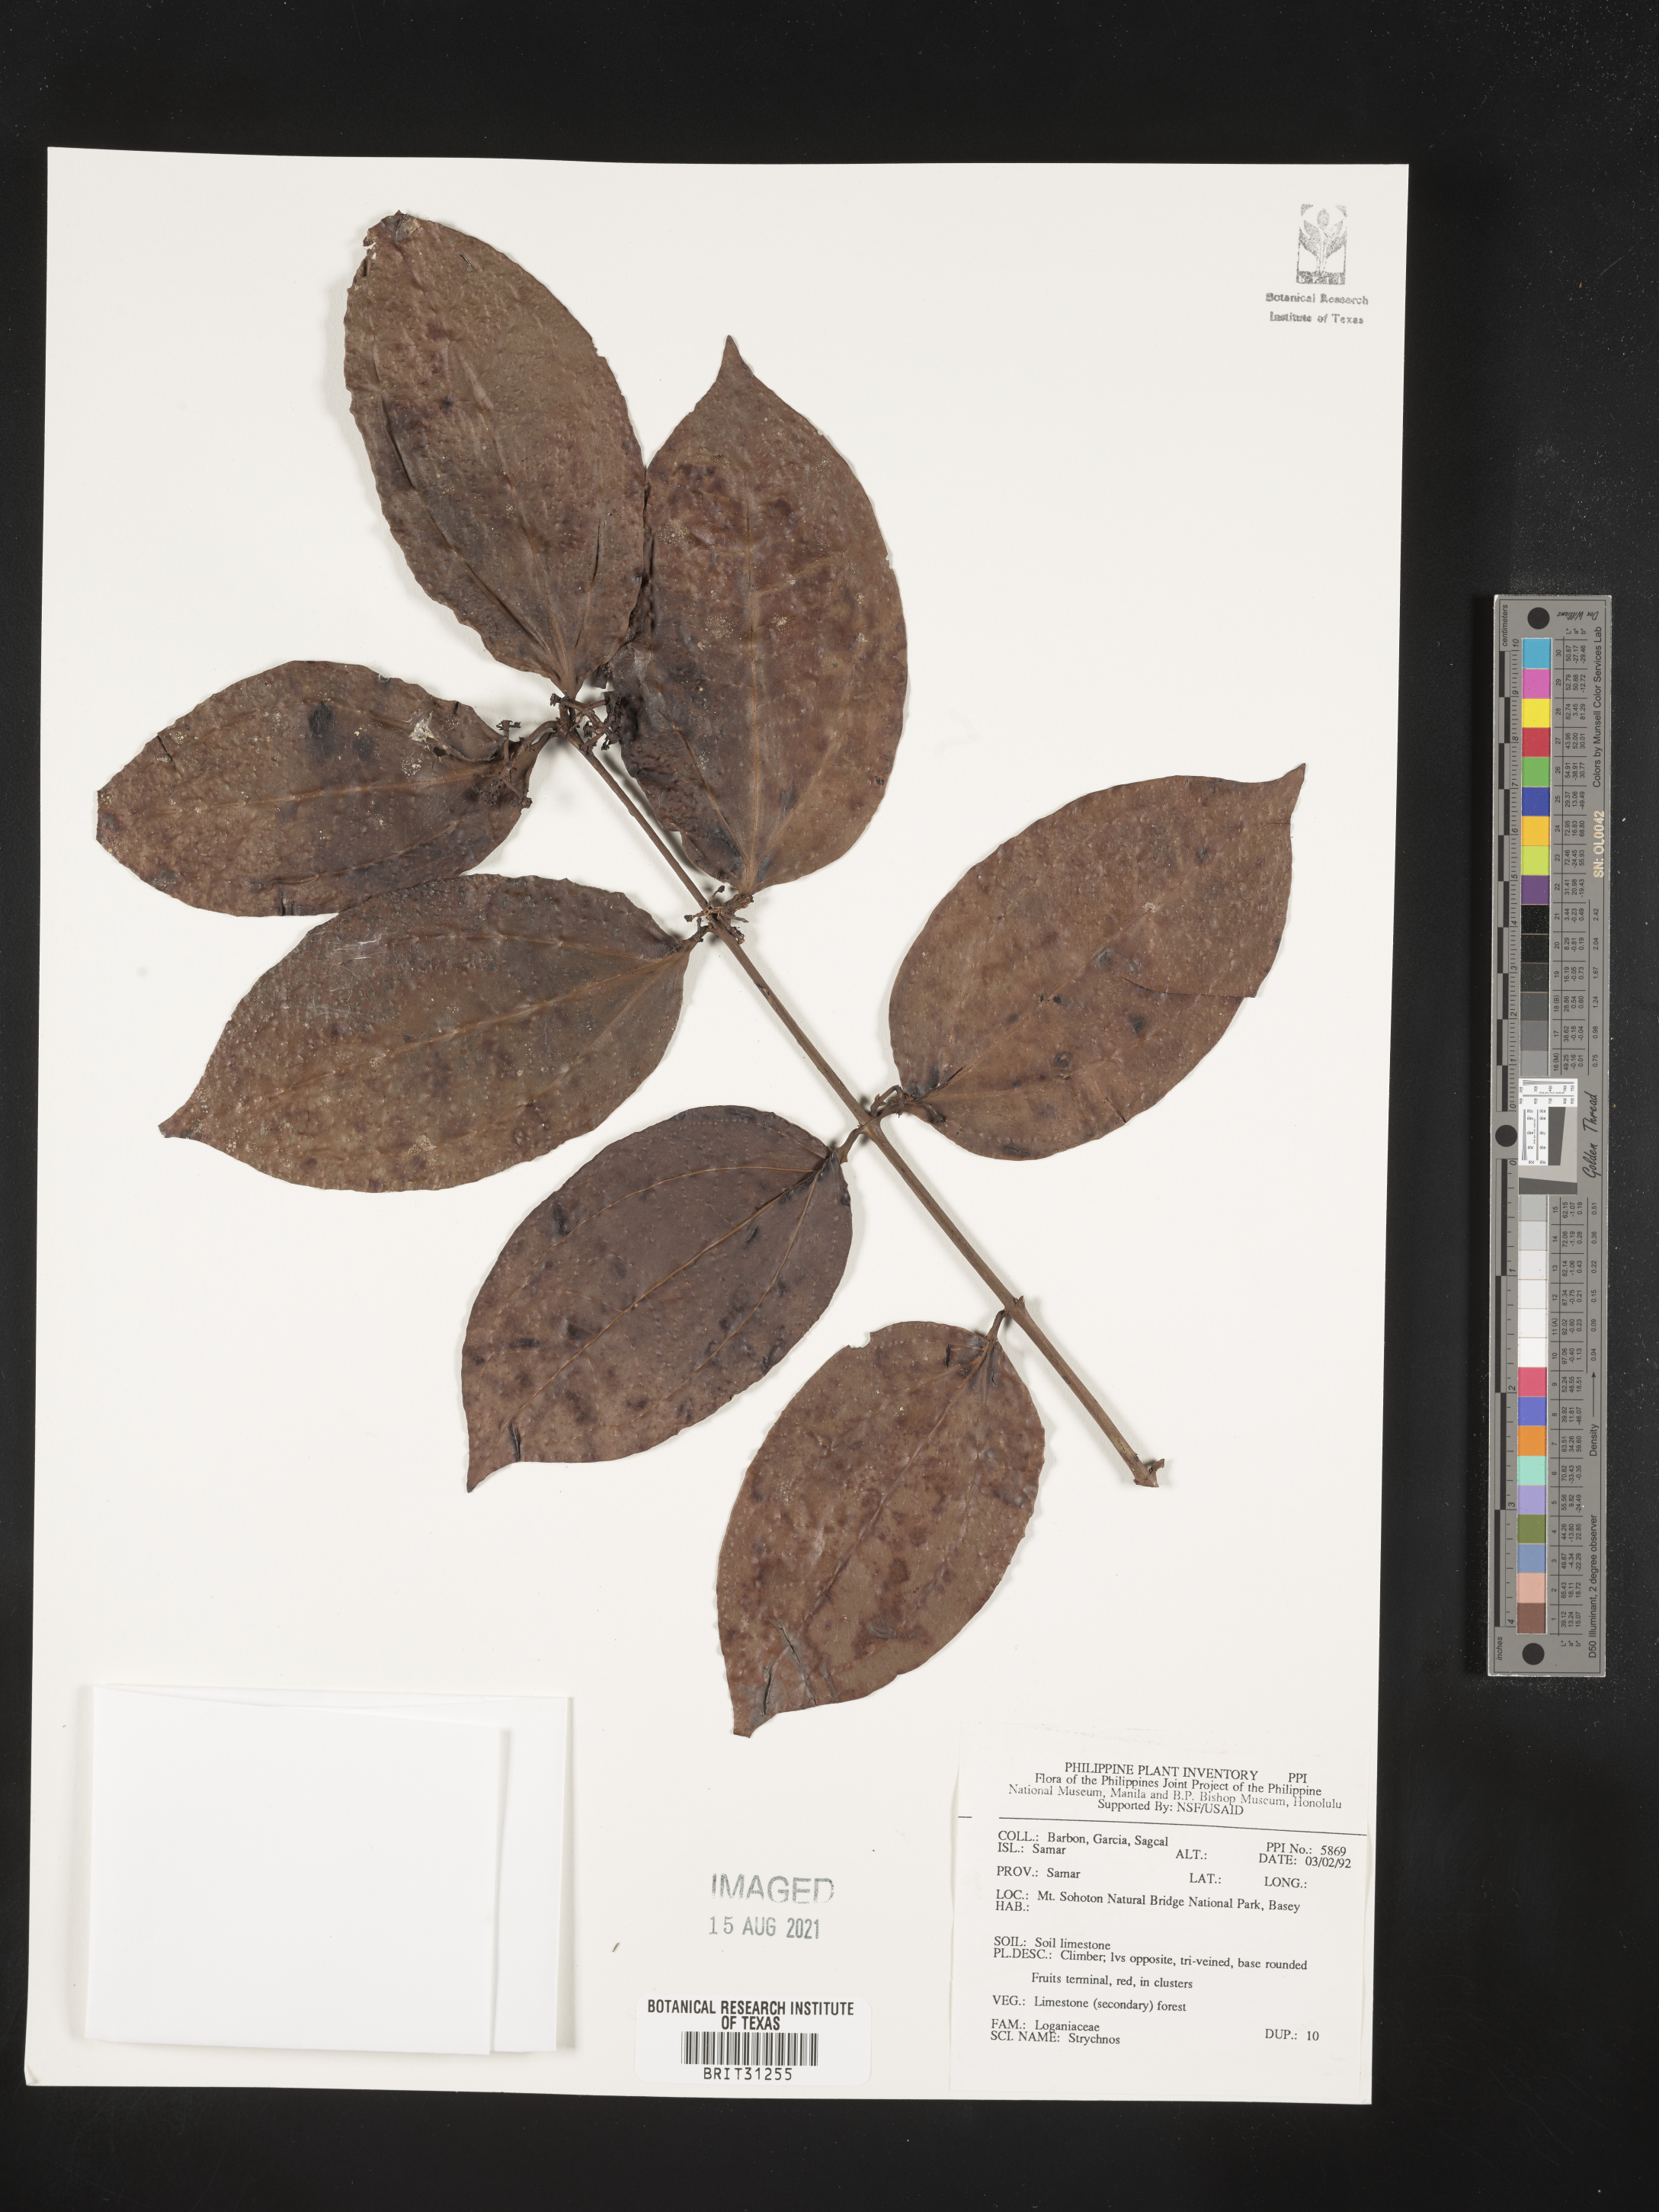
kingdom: Plantae
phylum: Tracheophyta
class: Magnoliopsida
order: Gentianales
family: Loganiaceae
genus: Strychnos
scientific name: Strychnos
